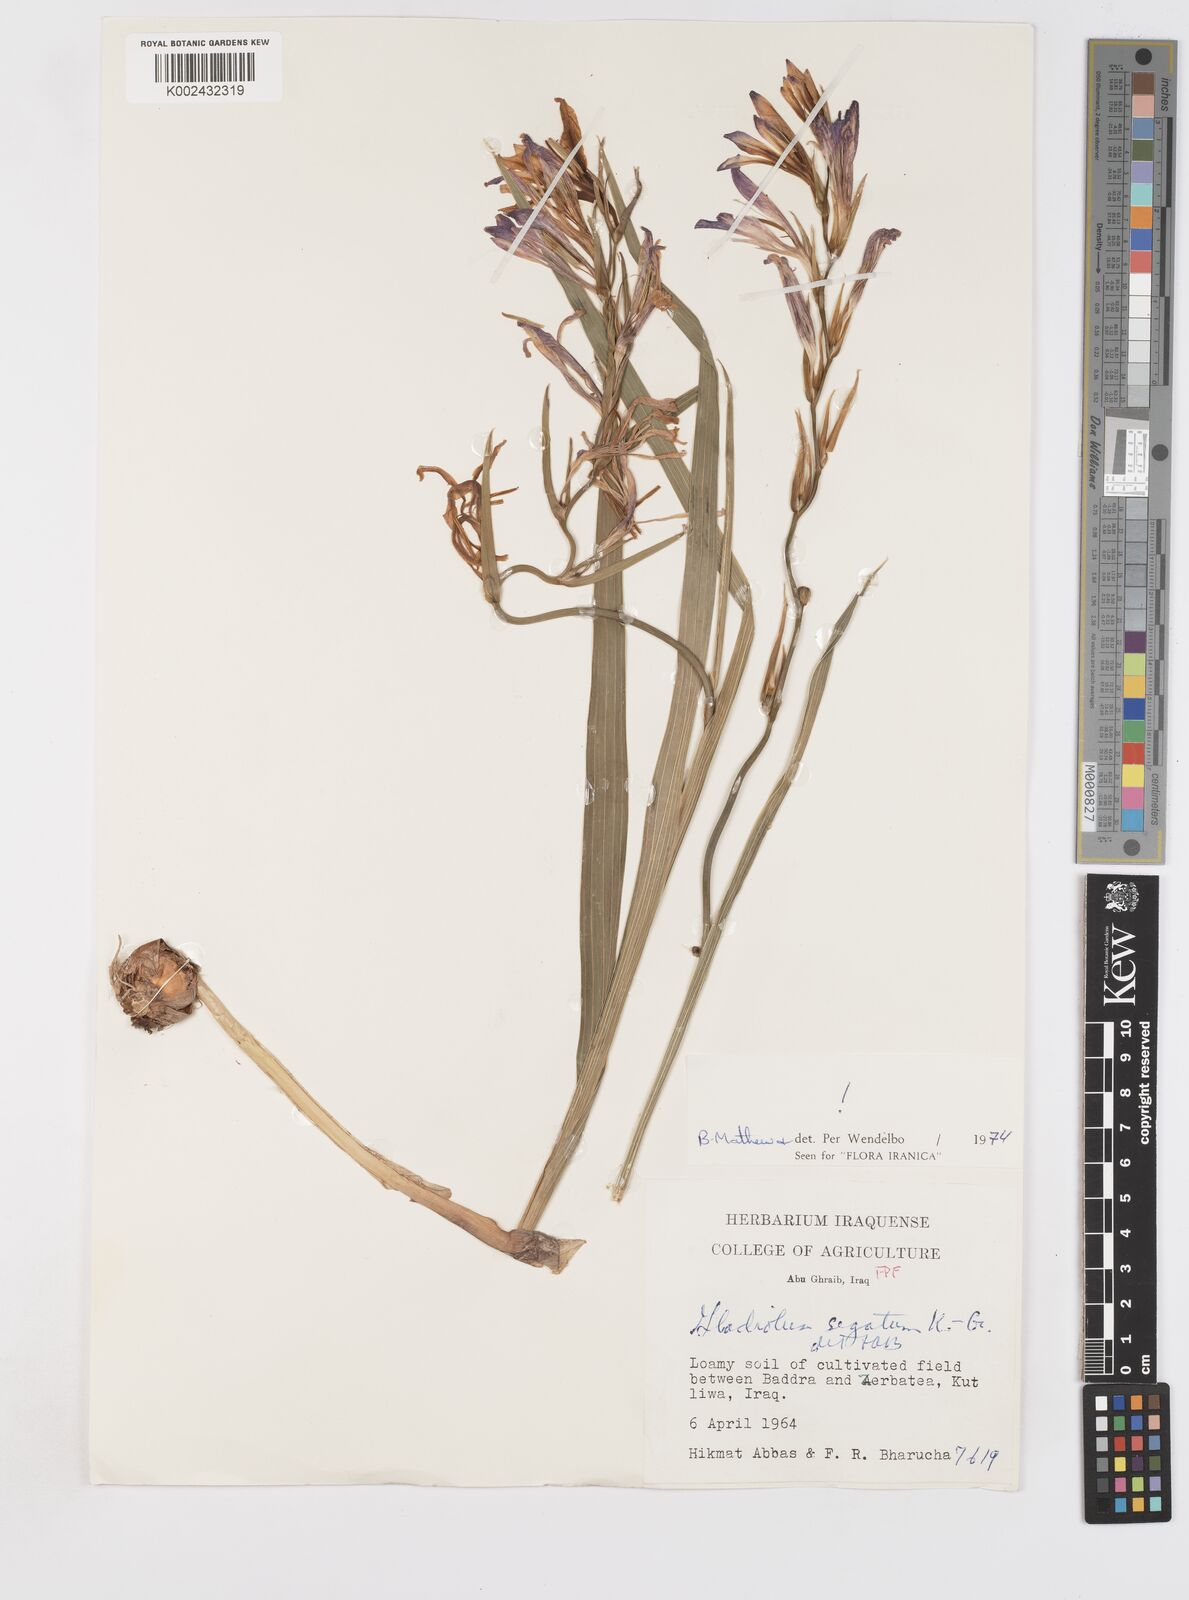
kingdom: Plantae
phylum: Tracheophyta
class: Liliopsida
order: Asparagales
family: Iridaceae
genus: Gladiolus
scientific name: Gladiolus italicus
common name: Field gladiolus
